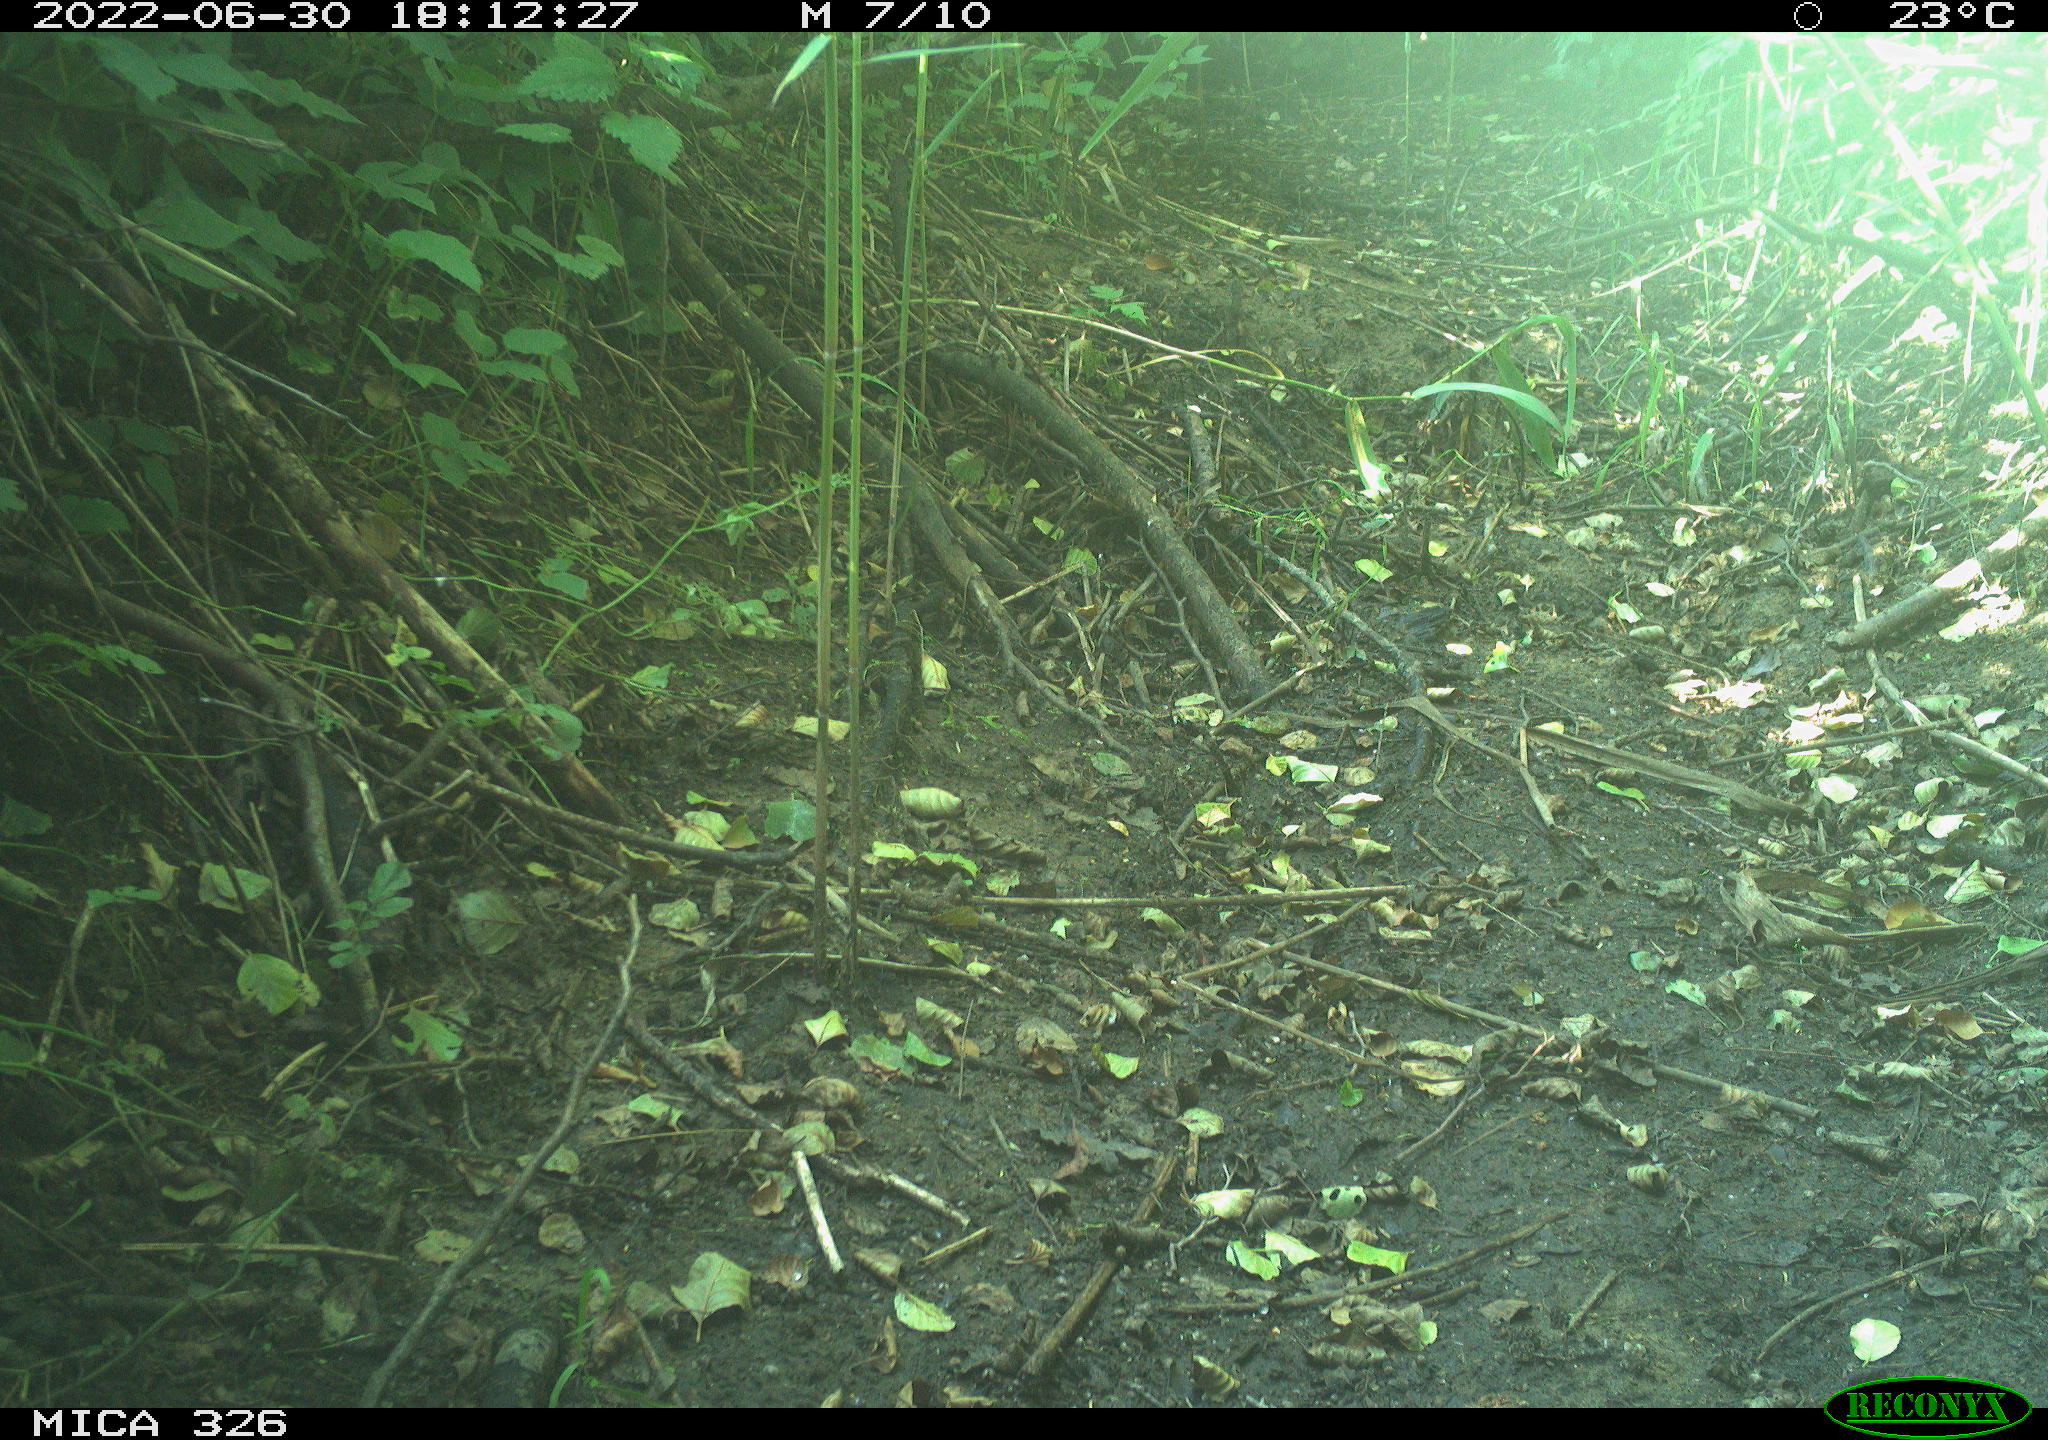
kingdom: Animalia
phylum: Chordata
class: Aves
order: Passeriformes
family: Turdidae
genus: Turdus
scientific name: Turdus philomelos
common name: Song thrush
